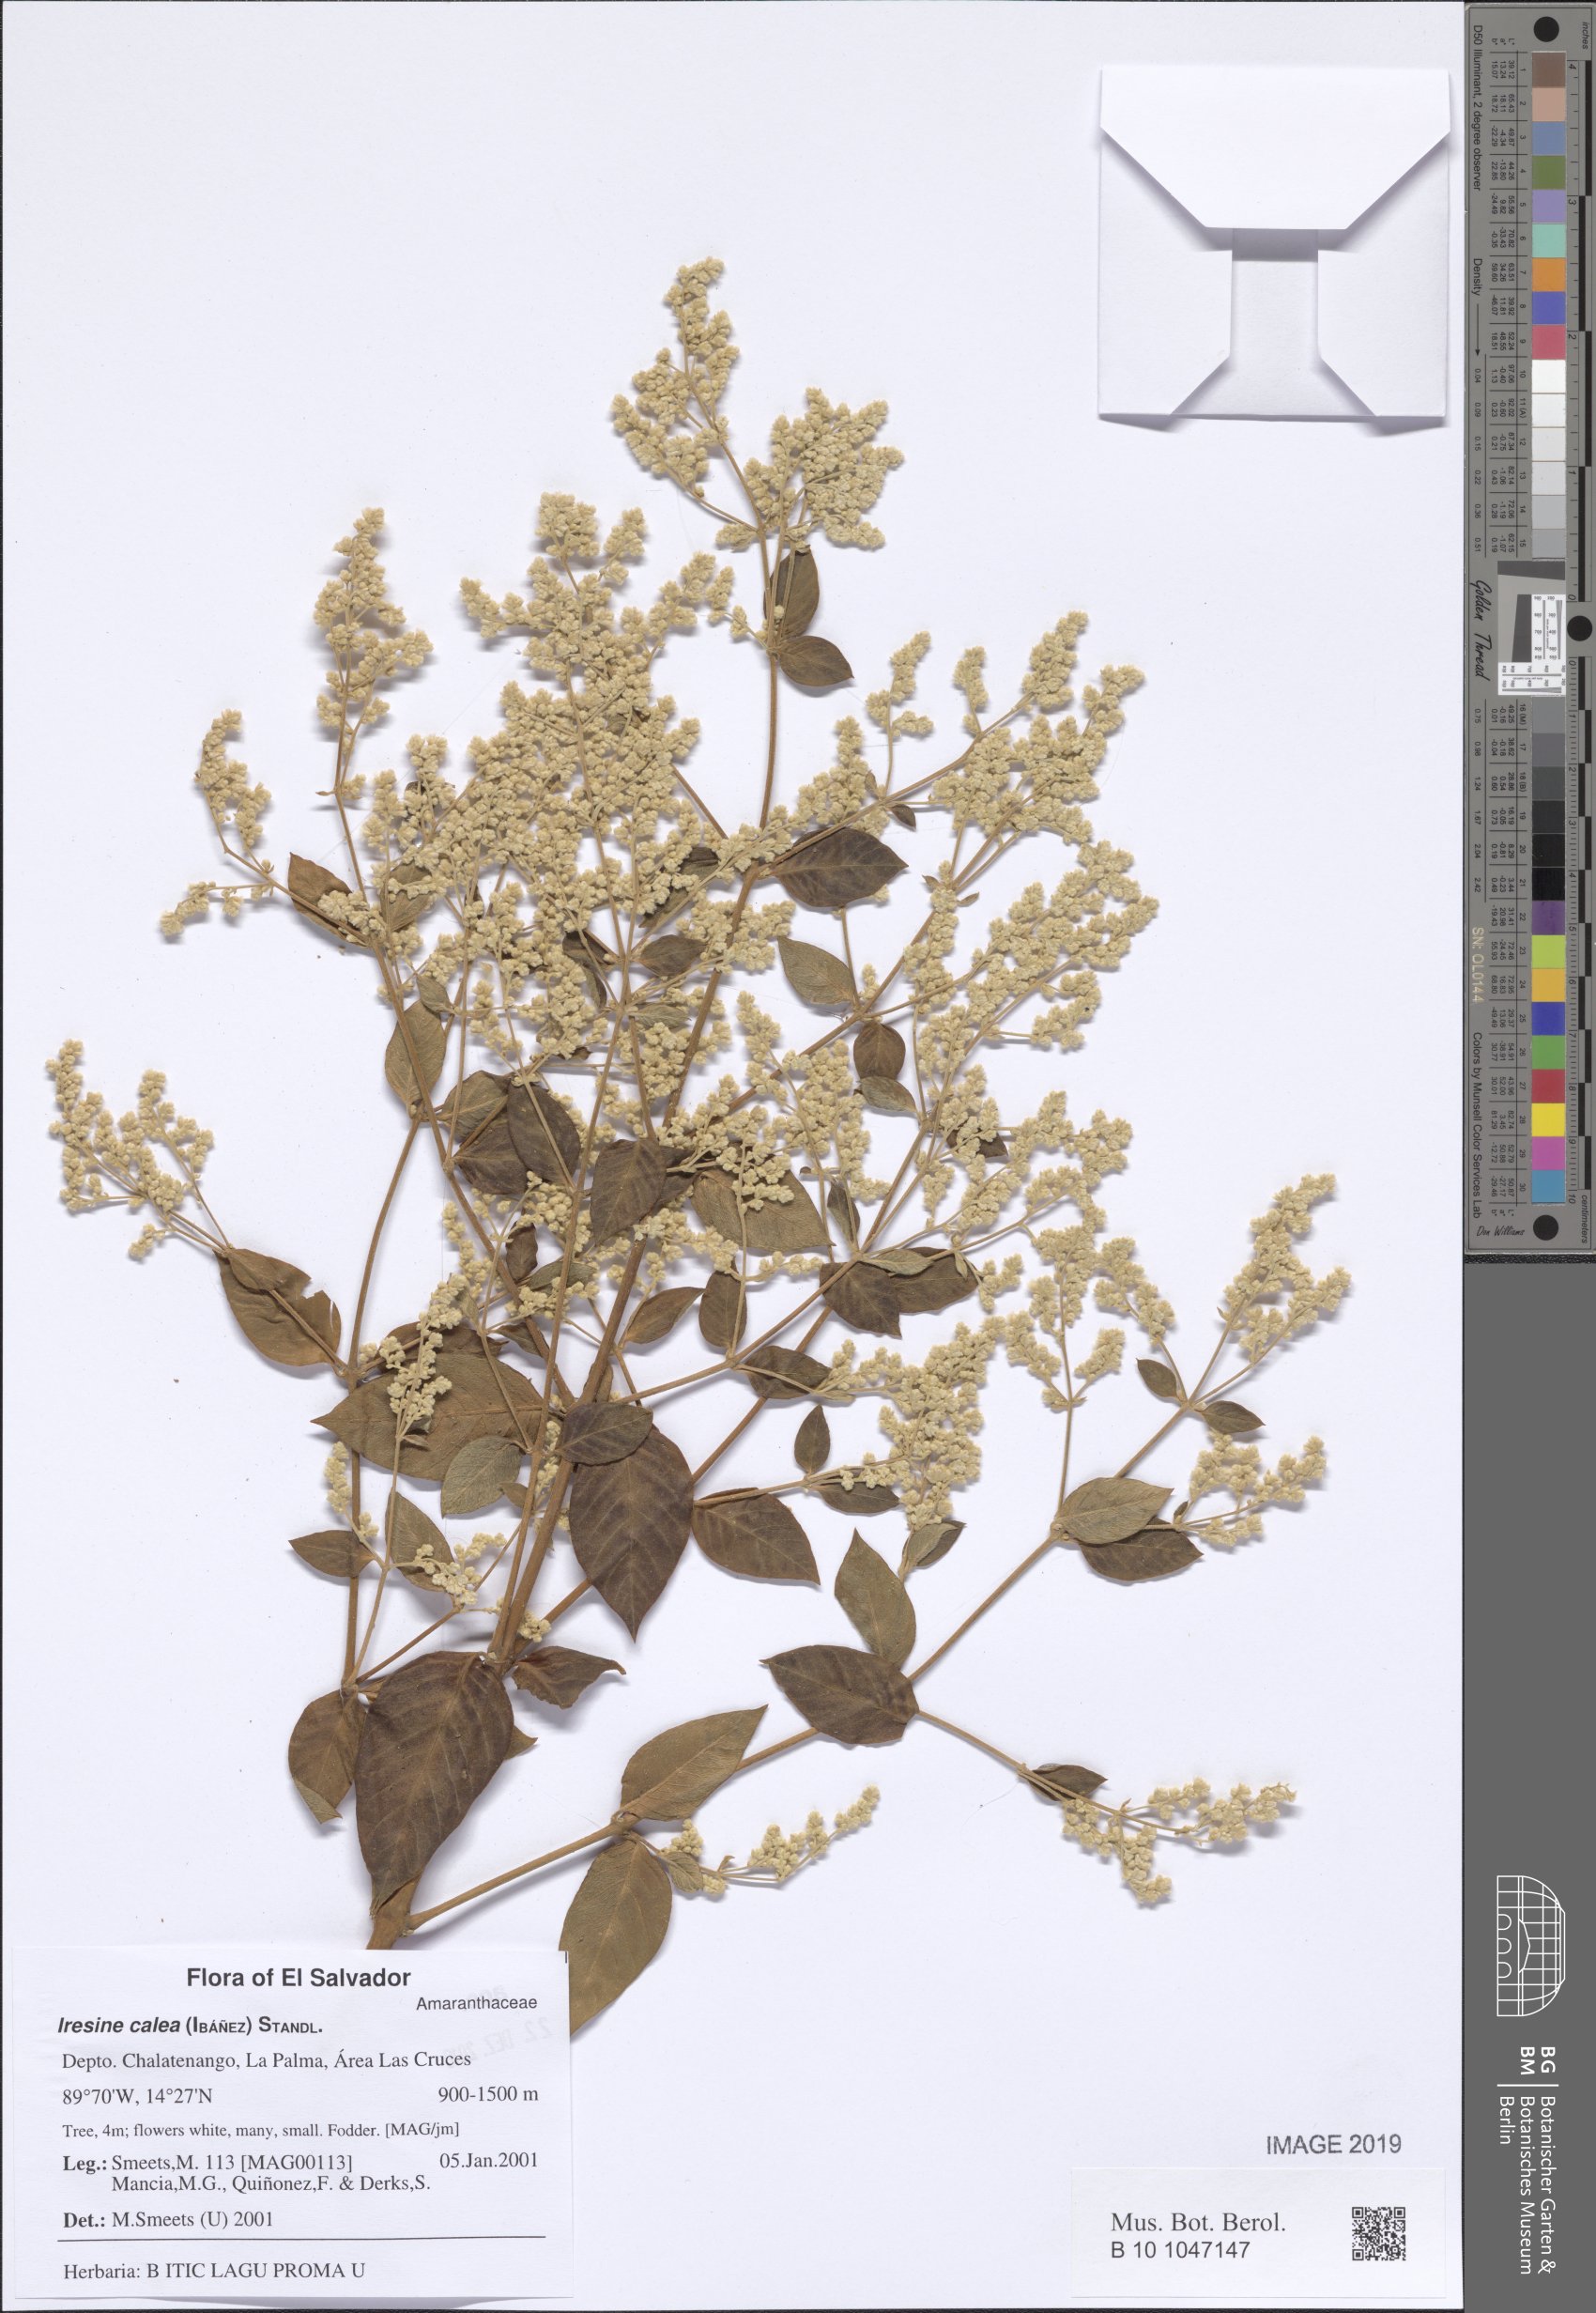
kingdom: Plantae
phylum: Tracheophyta
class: Magnoliopsida
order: Caryophyllales
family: Amaranthaceae
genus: Iresine
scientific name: Iresine latifolia
